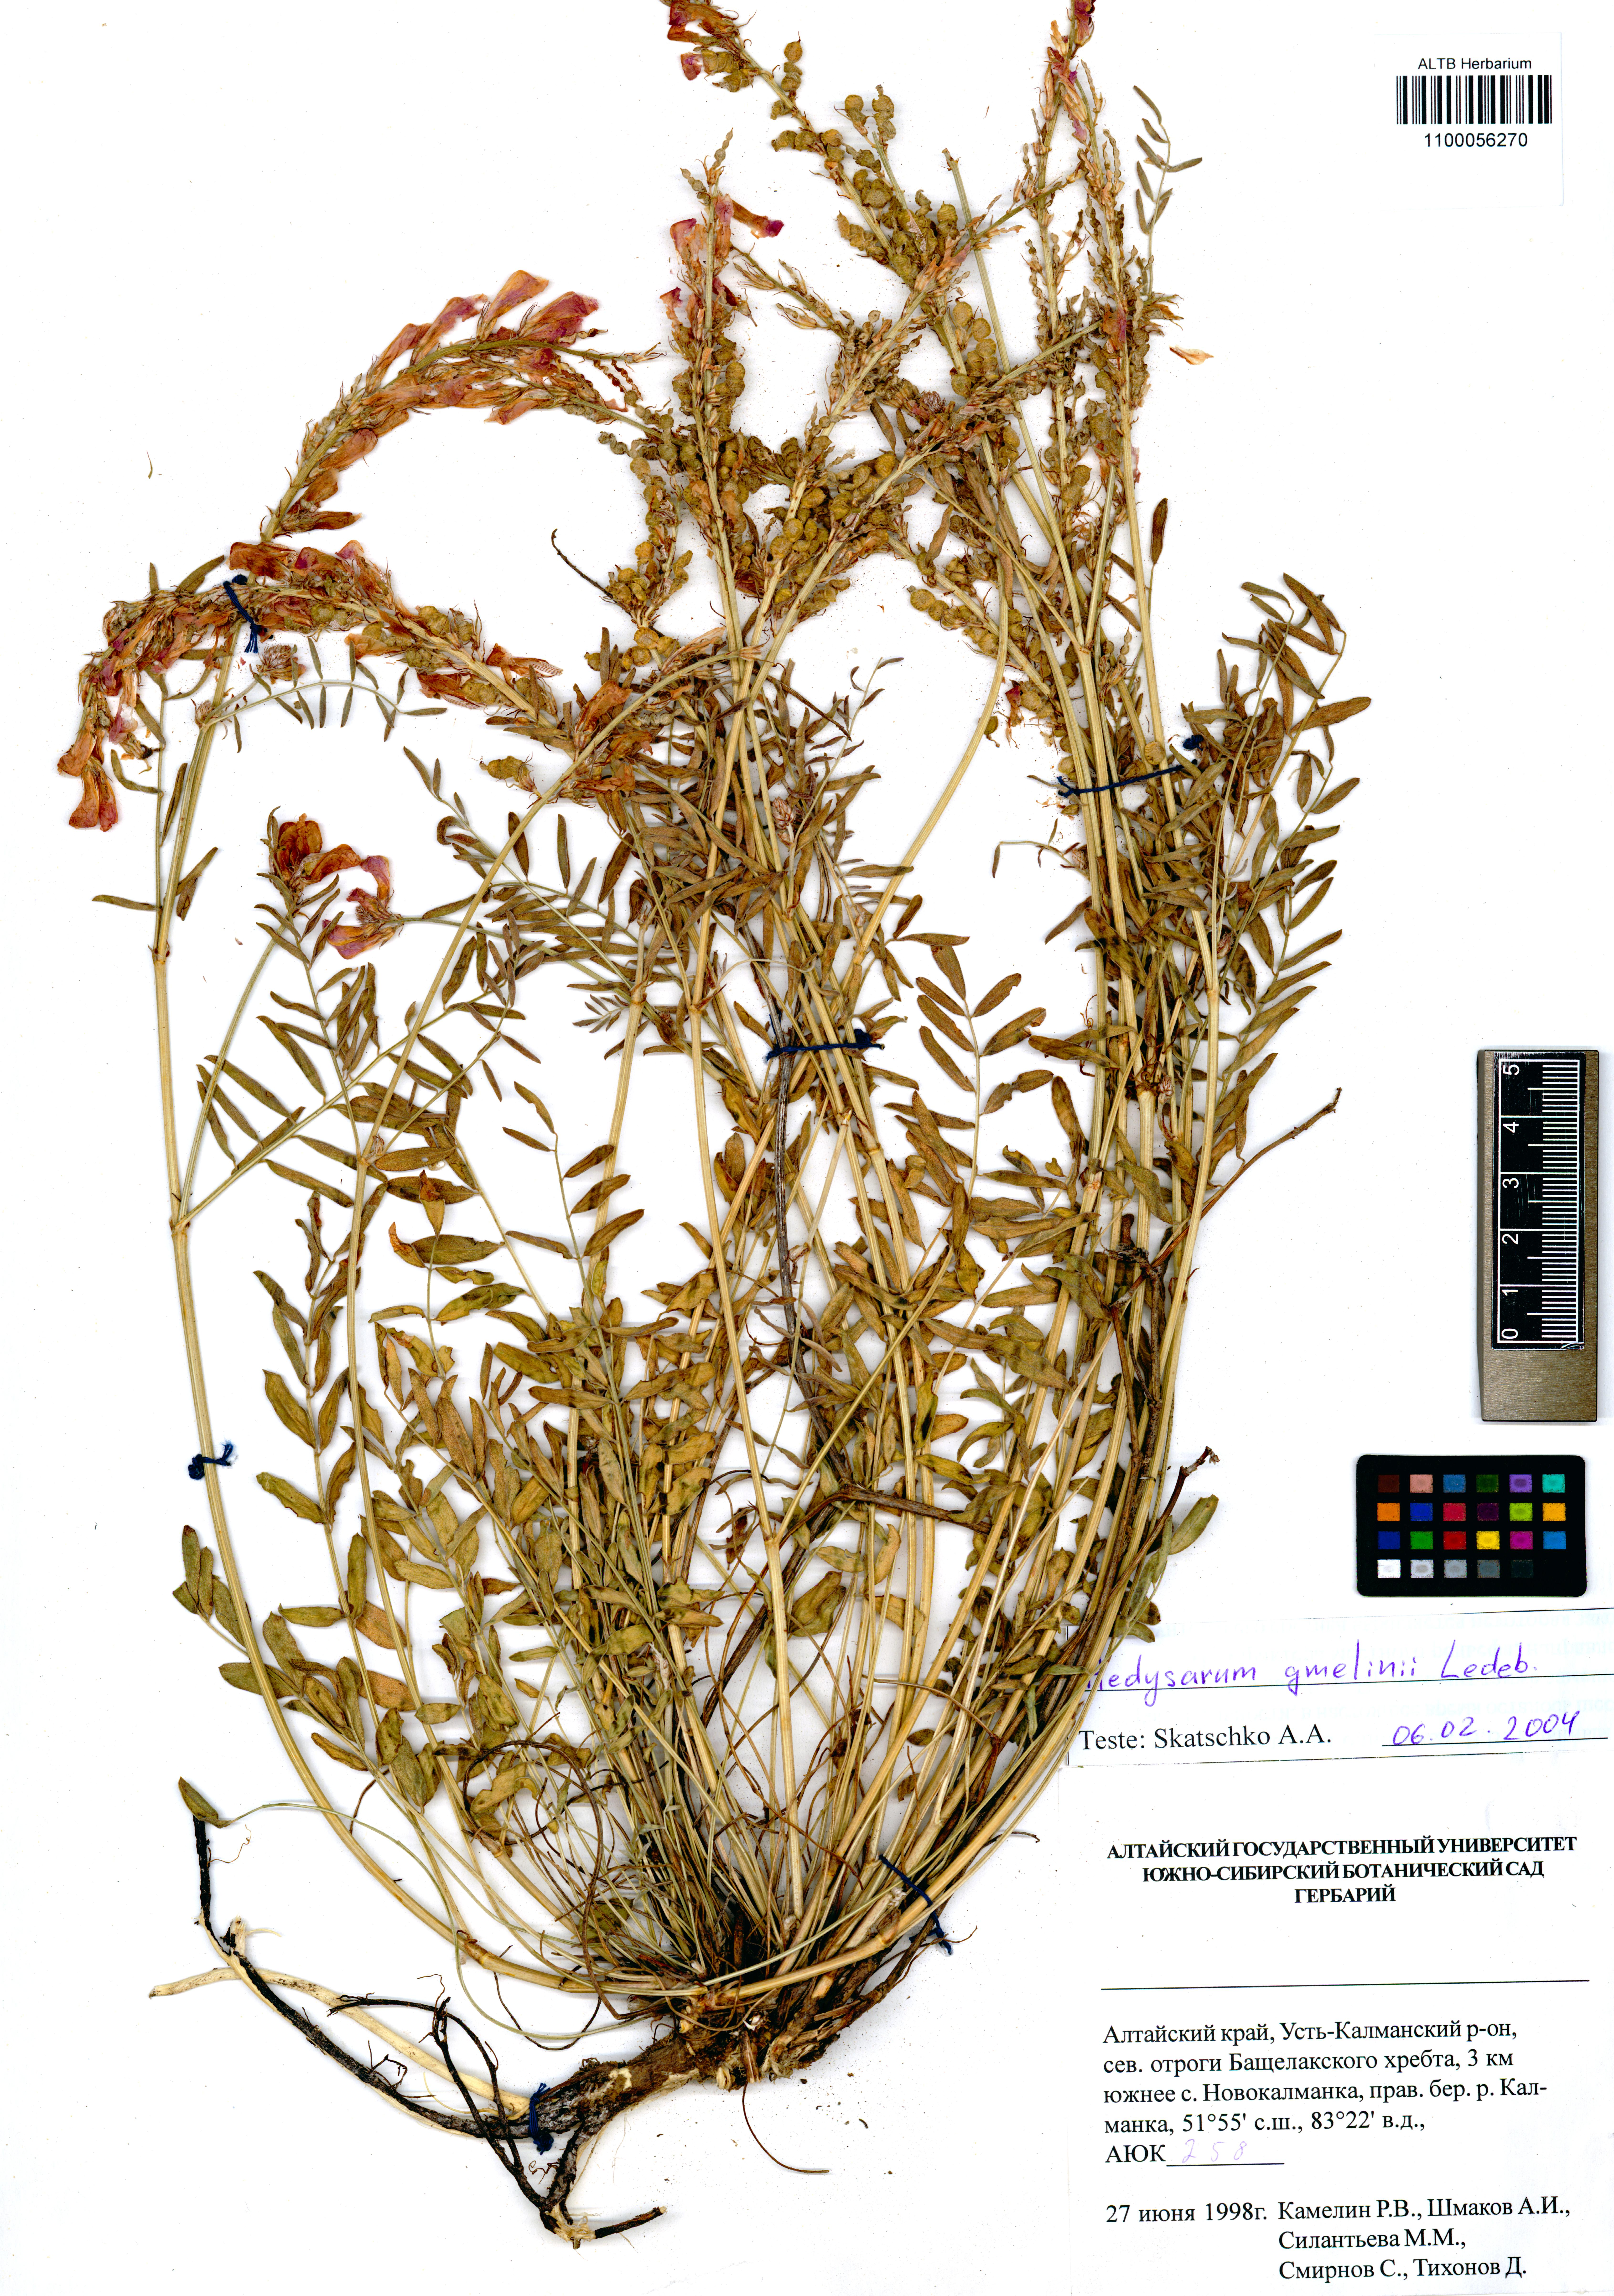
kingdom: Plantae
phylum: Tracheophyta
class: Magnoliopsida
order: Fabales
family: Fabaceae
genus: Hedysarum
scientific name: Hedysarum gmelinii
